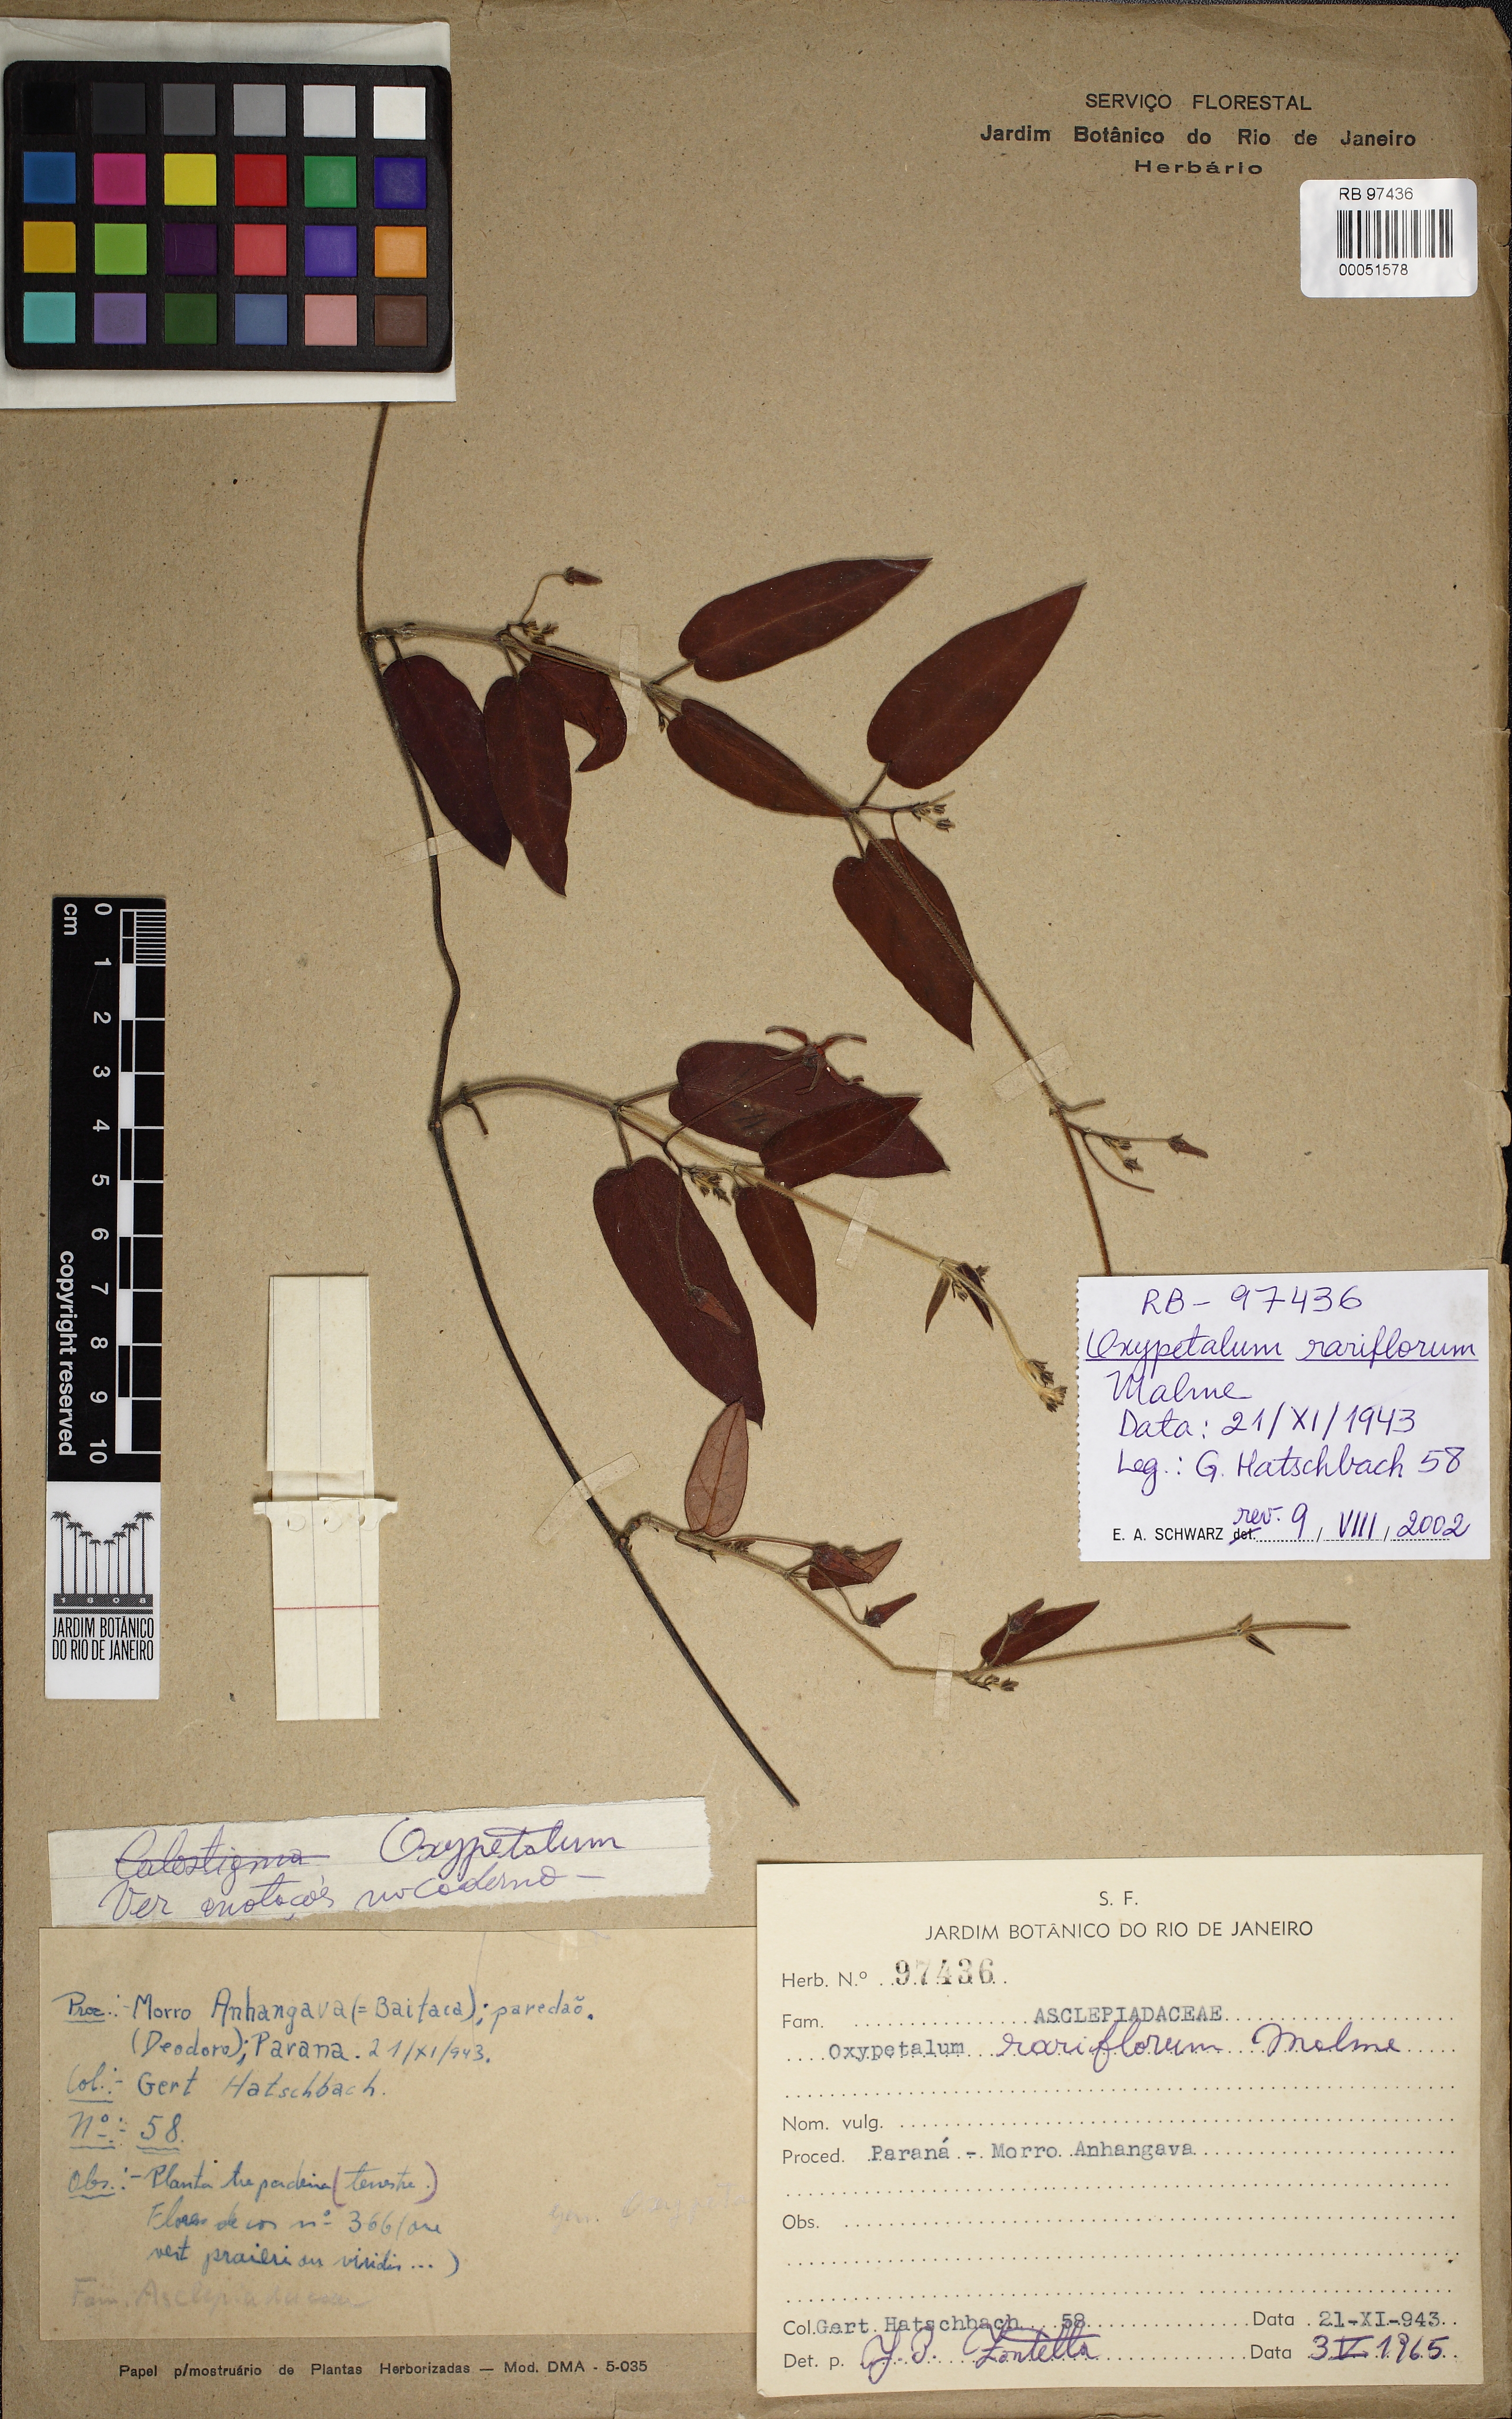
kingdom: Plantae
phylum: Tracheophyta
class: Magnoliopsida
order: Gentianales
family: Apocynaceae
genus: Oxypetalum
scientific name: Oxypetalum rariflorum
